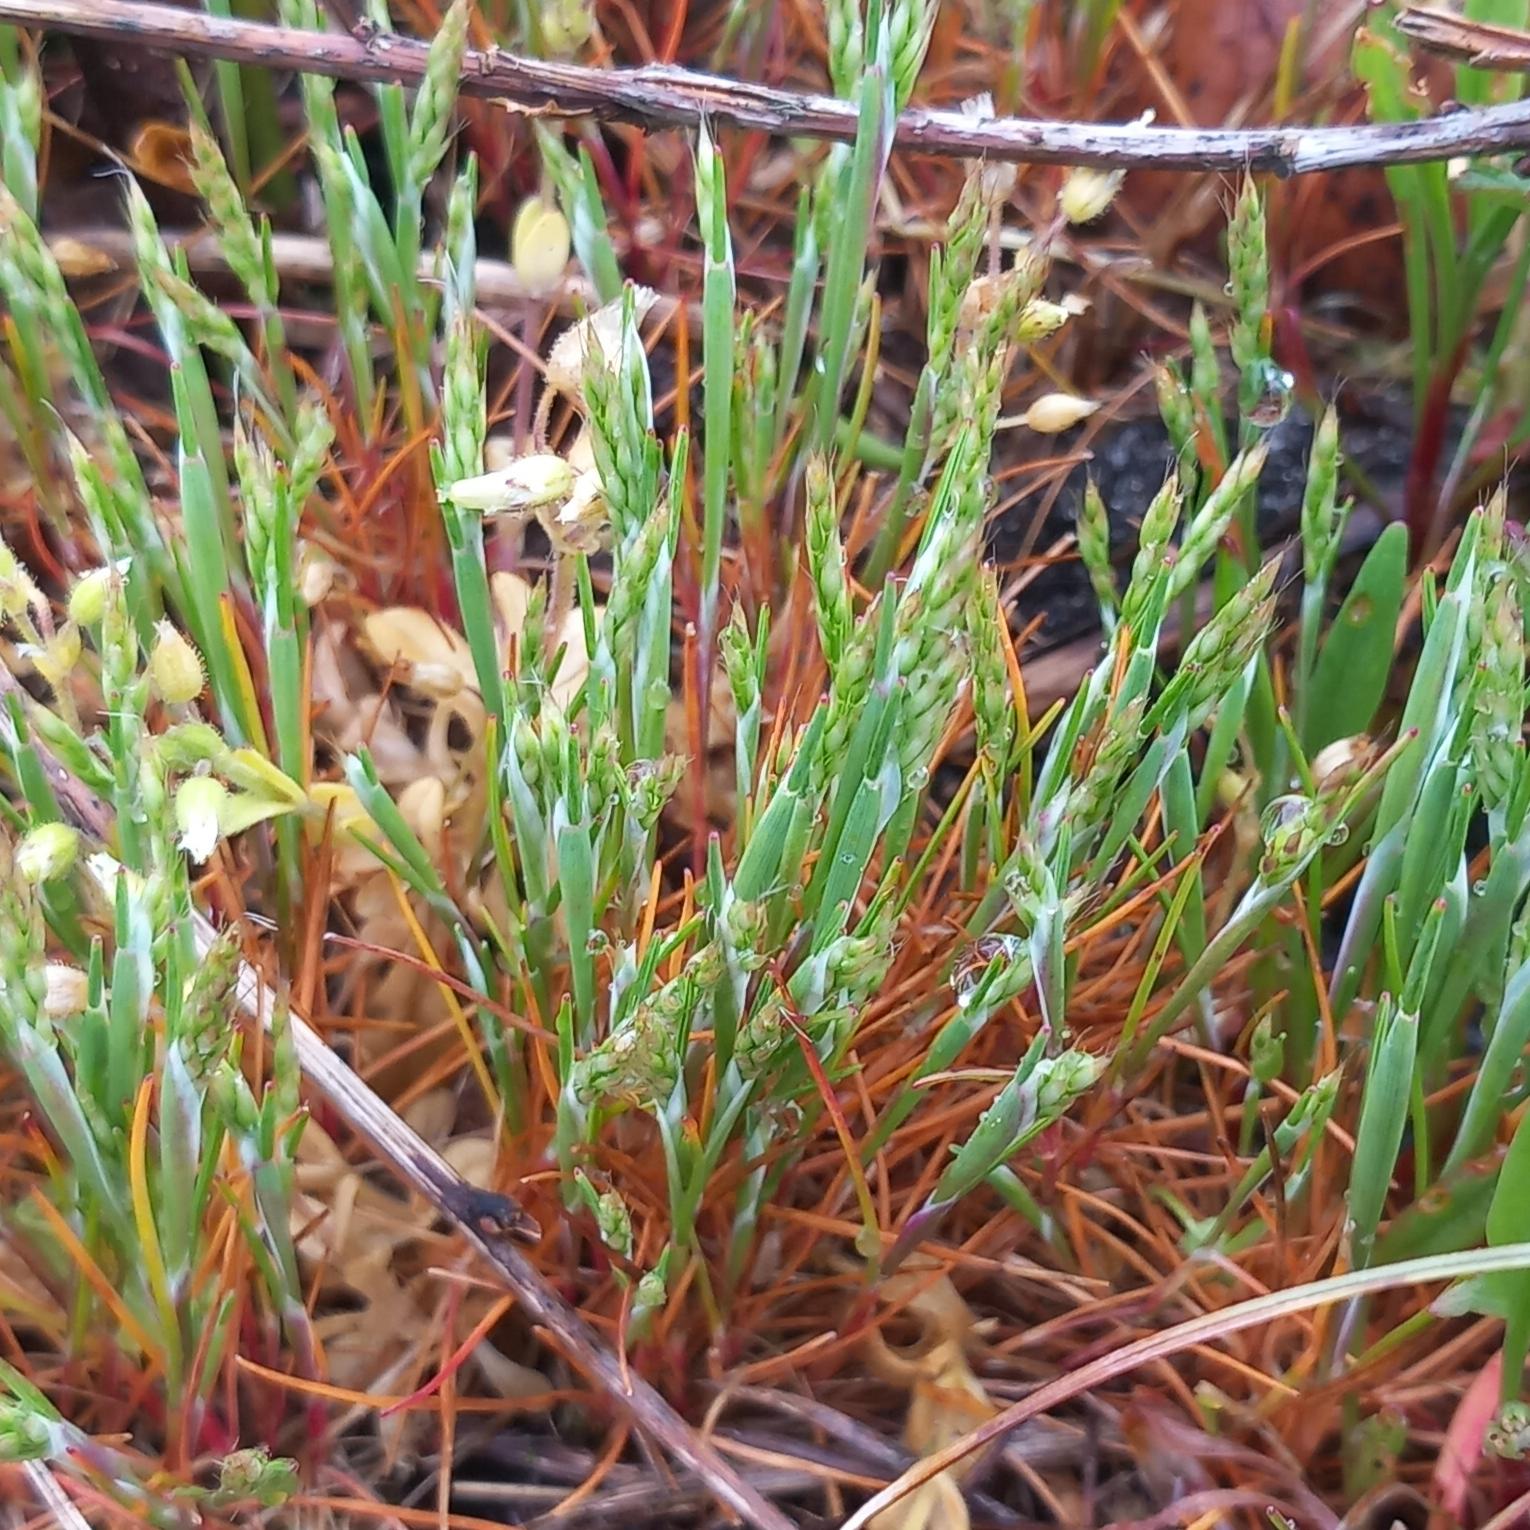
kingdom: Plantae
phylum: Tracheophyta
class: Liliopsida
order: Poales
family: Poaceae
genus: Aira
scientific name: Aira praecox
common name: Tidlig dværgbunke
